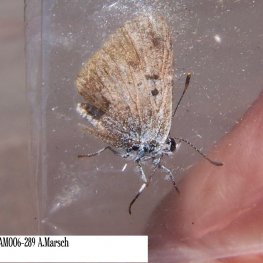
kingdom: Animalia
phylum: Arthropoda
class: Insecta
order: Lepidoptera
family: Lycaenidae
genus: Cyaniris
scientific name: Cyaniris neglecta
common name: Summer Azure
